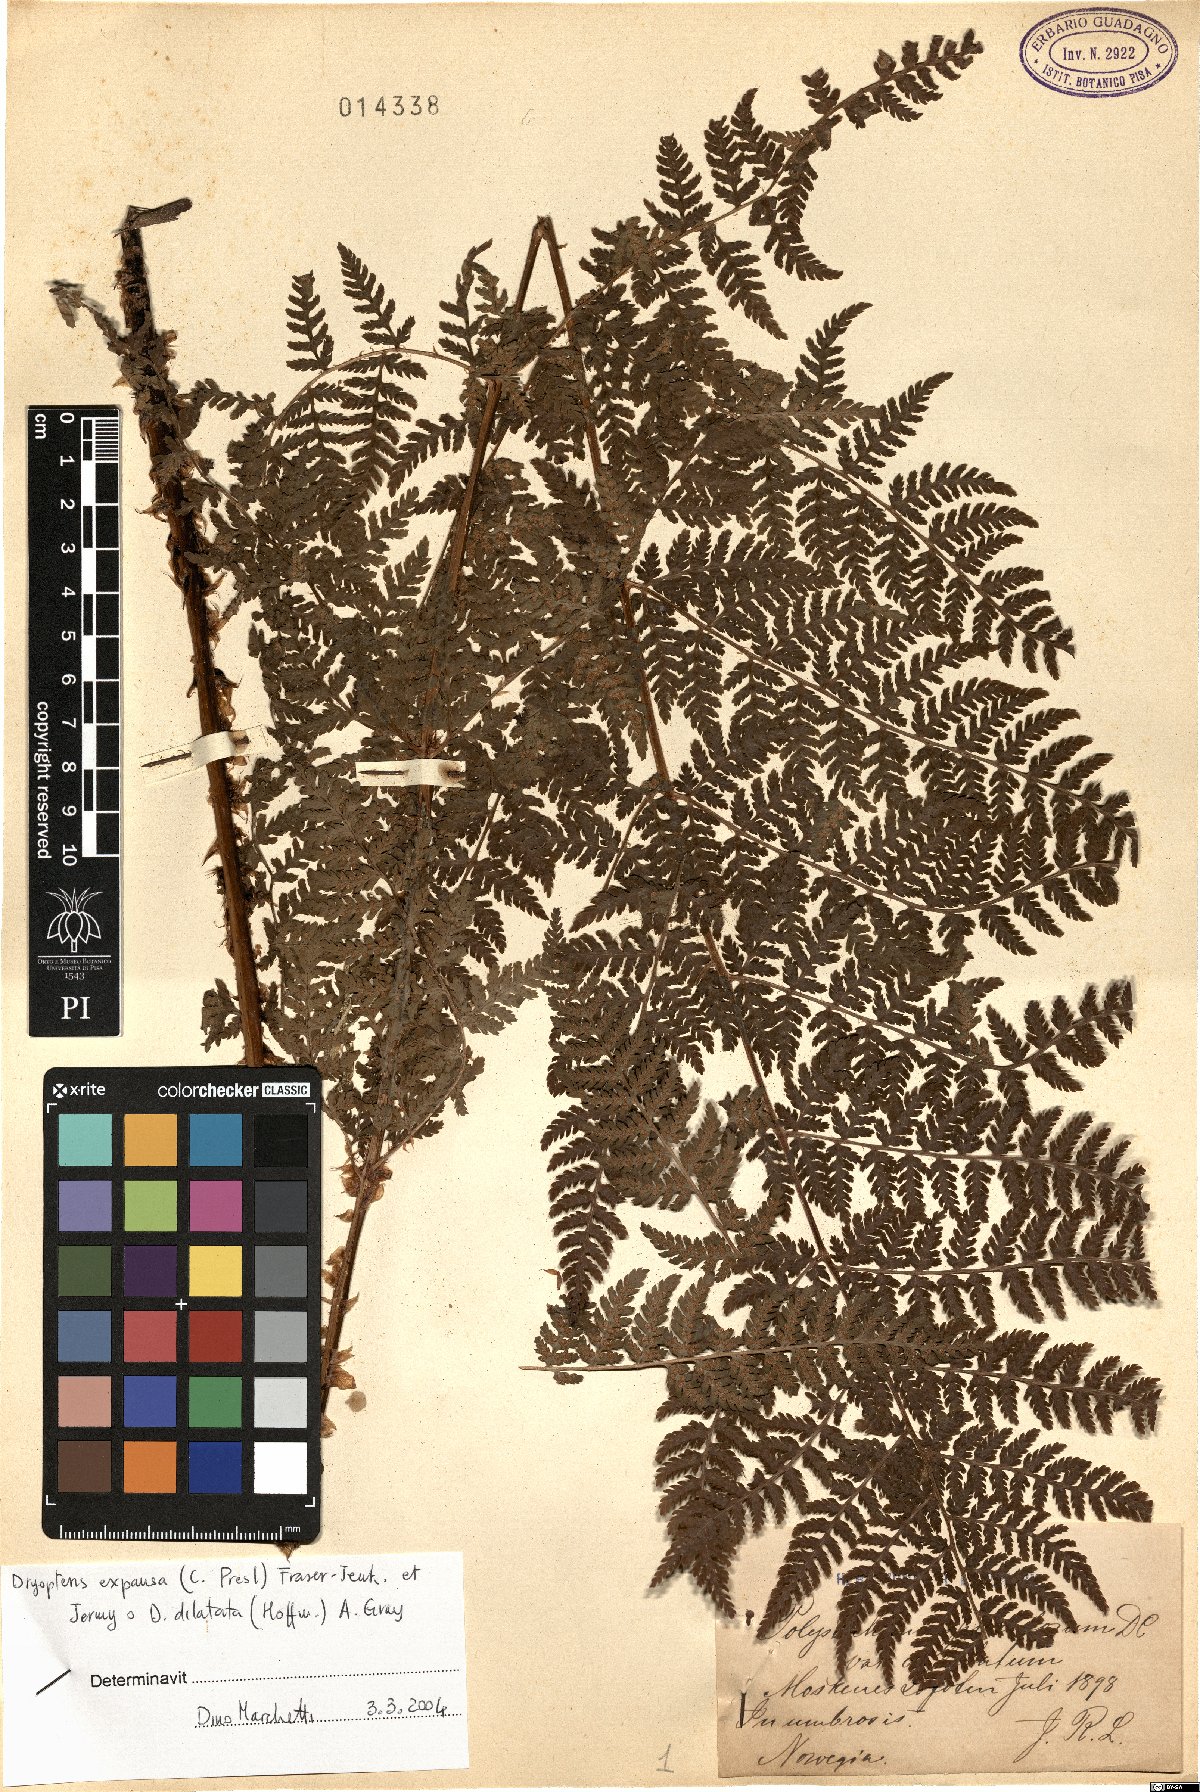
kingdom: Plantae
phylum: Tracheophyta
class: Polypodiopsida
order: Polypodiales
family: Dryopteridaceae
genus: Dryopteris
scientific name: Dryopteris expansa
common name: Northern buckler fern
